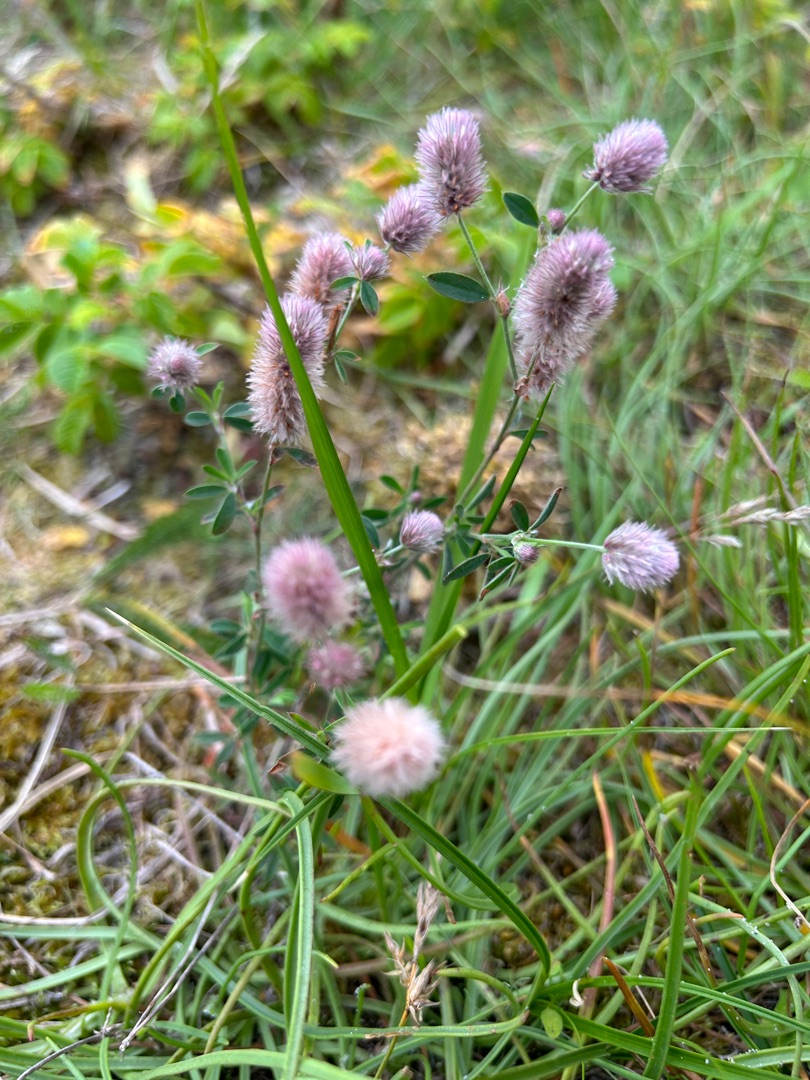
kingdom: Plantae
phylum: Tracheophyta
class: Magnoliopsida
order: Fabales
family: Fabaceae
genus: Trifolium
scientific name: Trifolium arvense
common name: Hare-kløver
